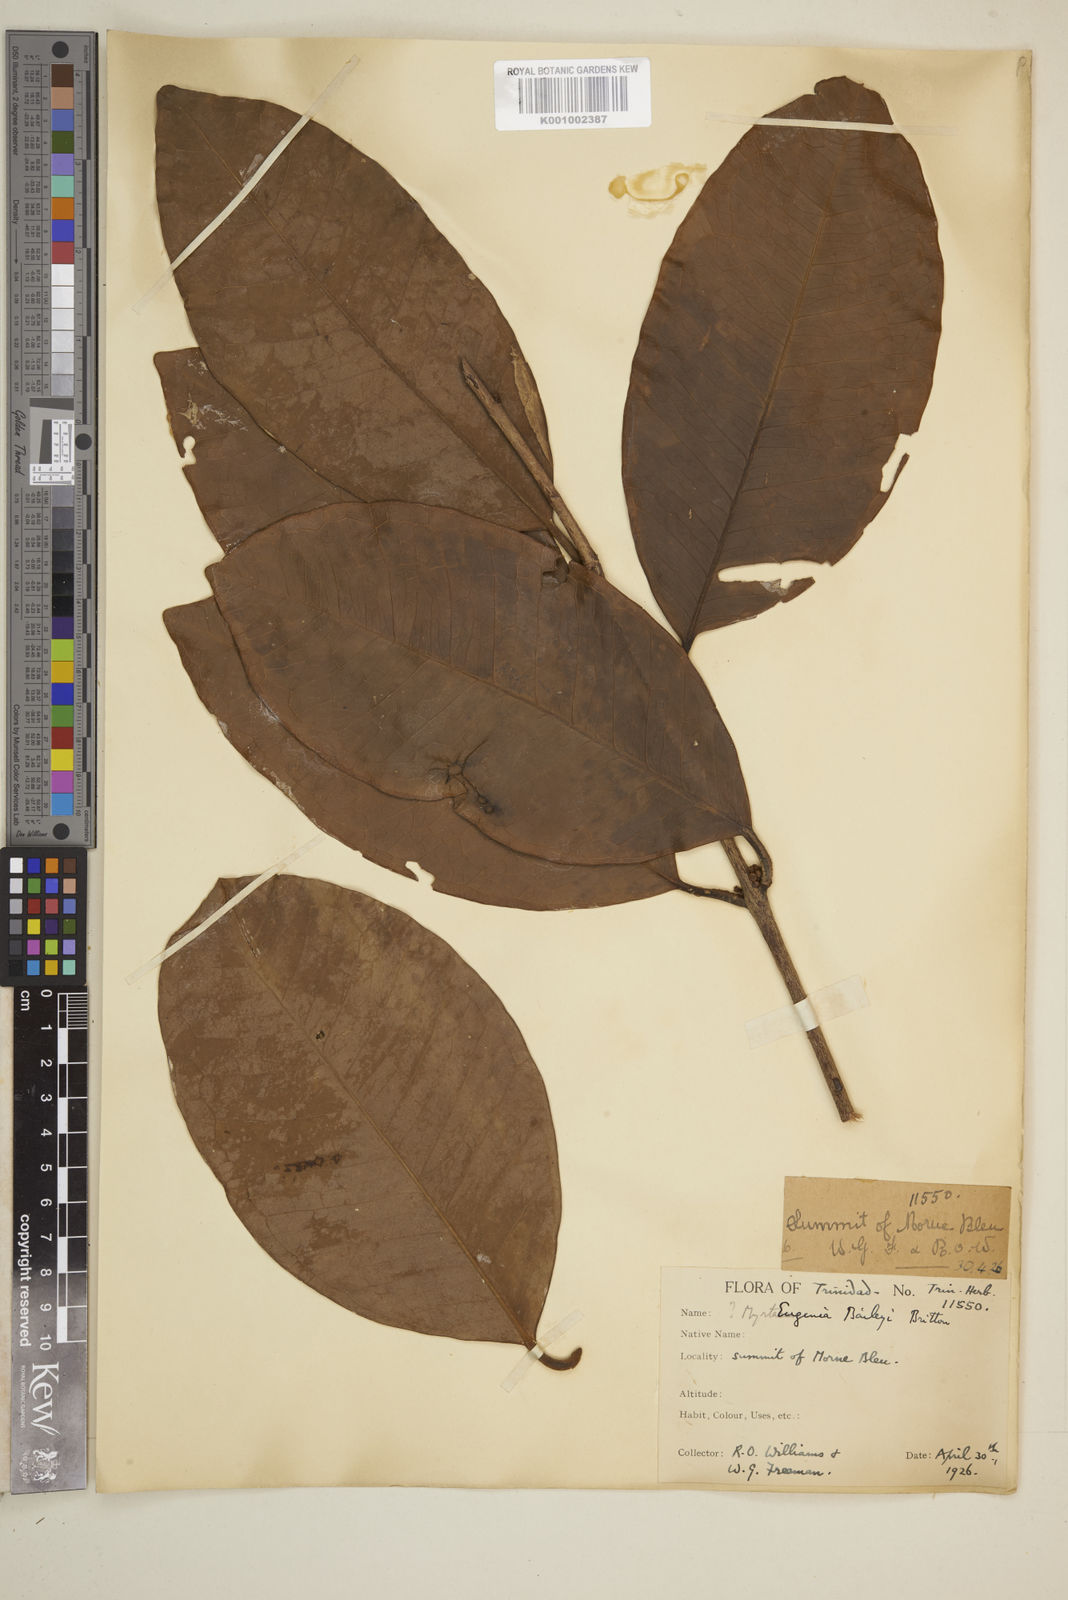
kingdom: Plantae
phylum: Tracheophyta
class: Magnoliopsida
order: Myrtales
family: Myrtaceae
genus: Eugenia
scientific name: Eugenia baileyi
